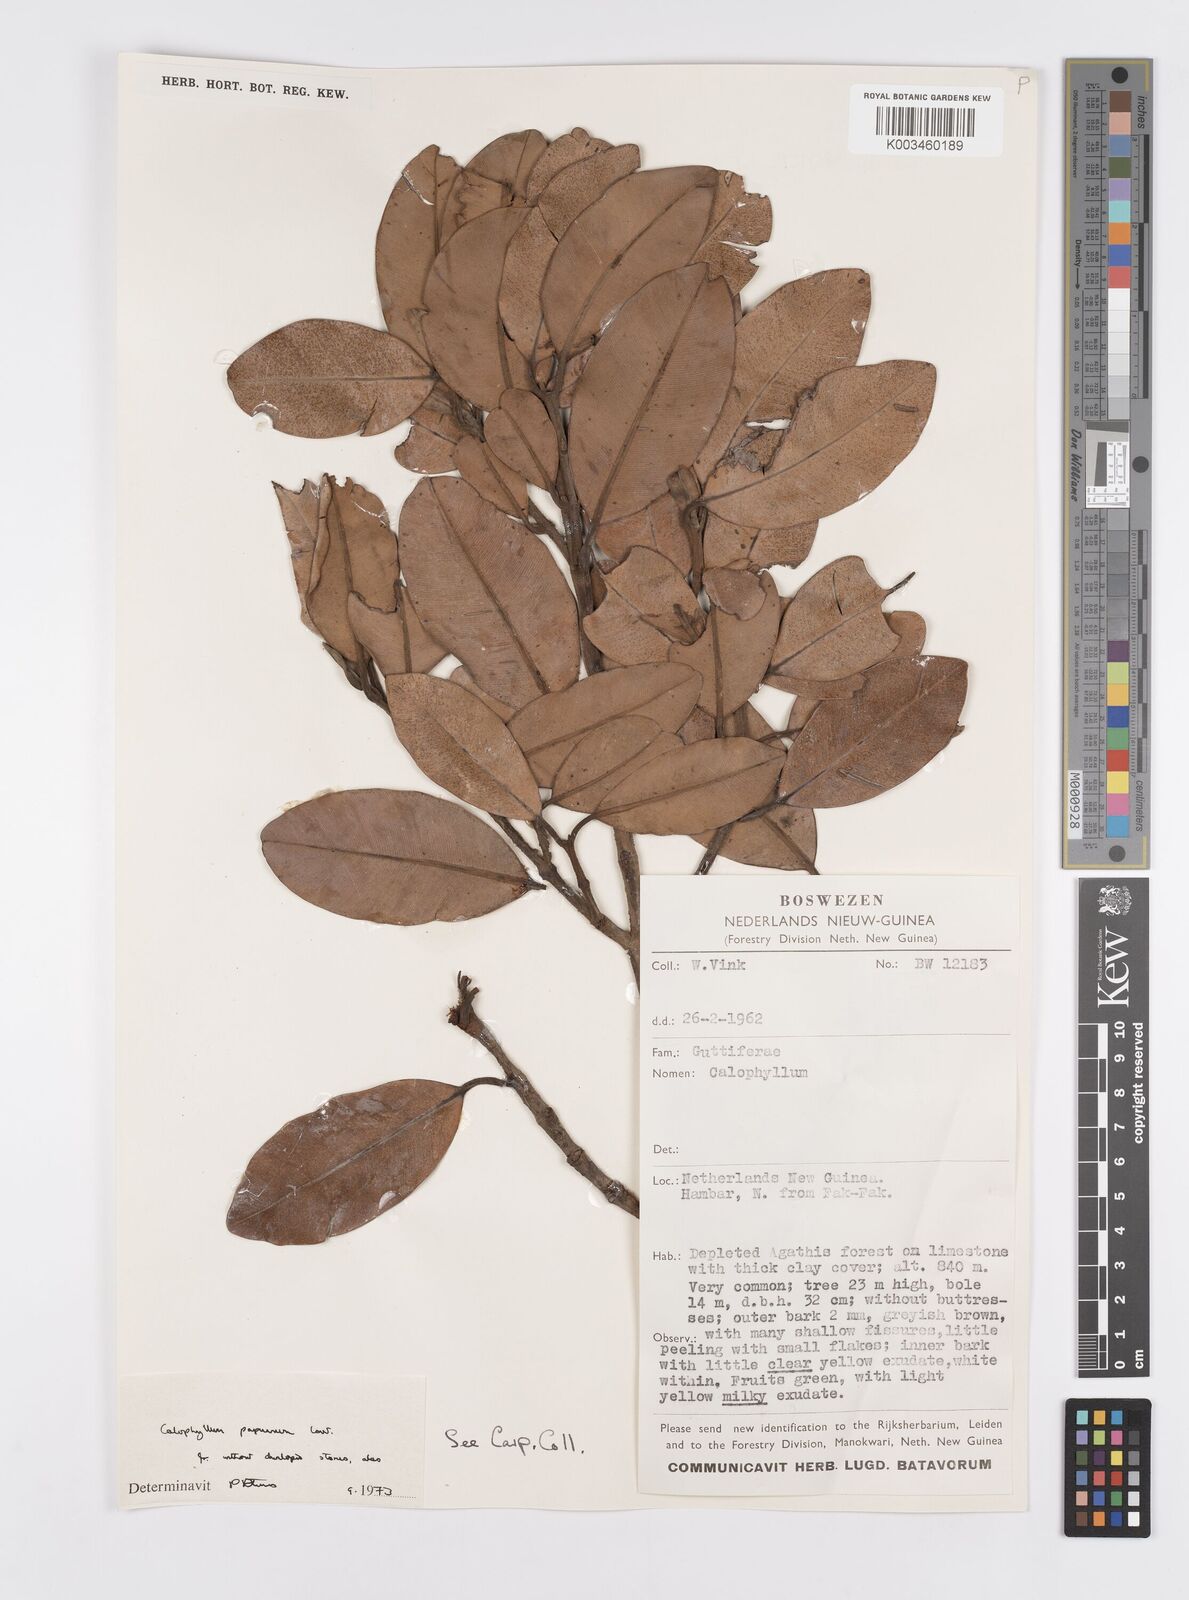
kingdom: Plantae
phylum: Tracheophyta
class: Magnoliopsida
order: Malpighiales
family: Calophyllaceae
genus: Calophyllum
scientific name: Calophyllum papuanum
